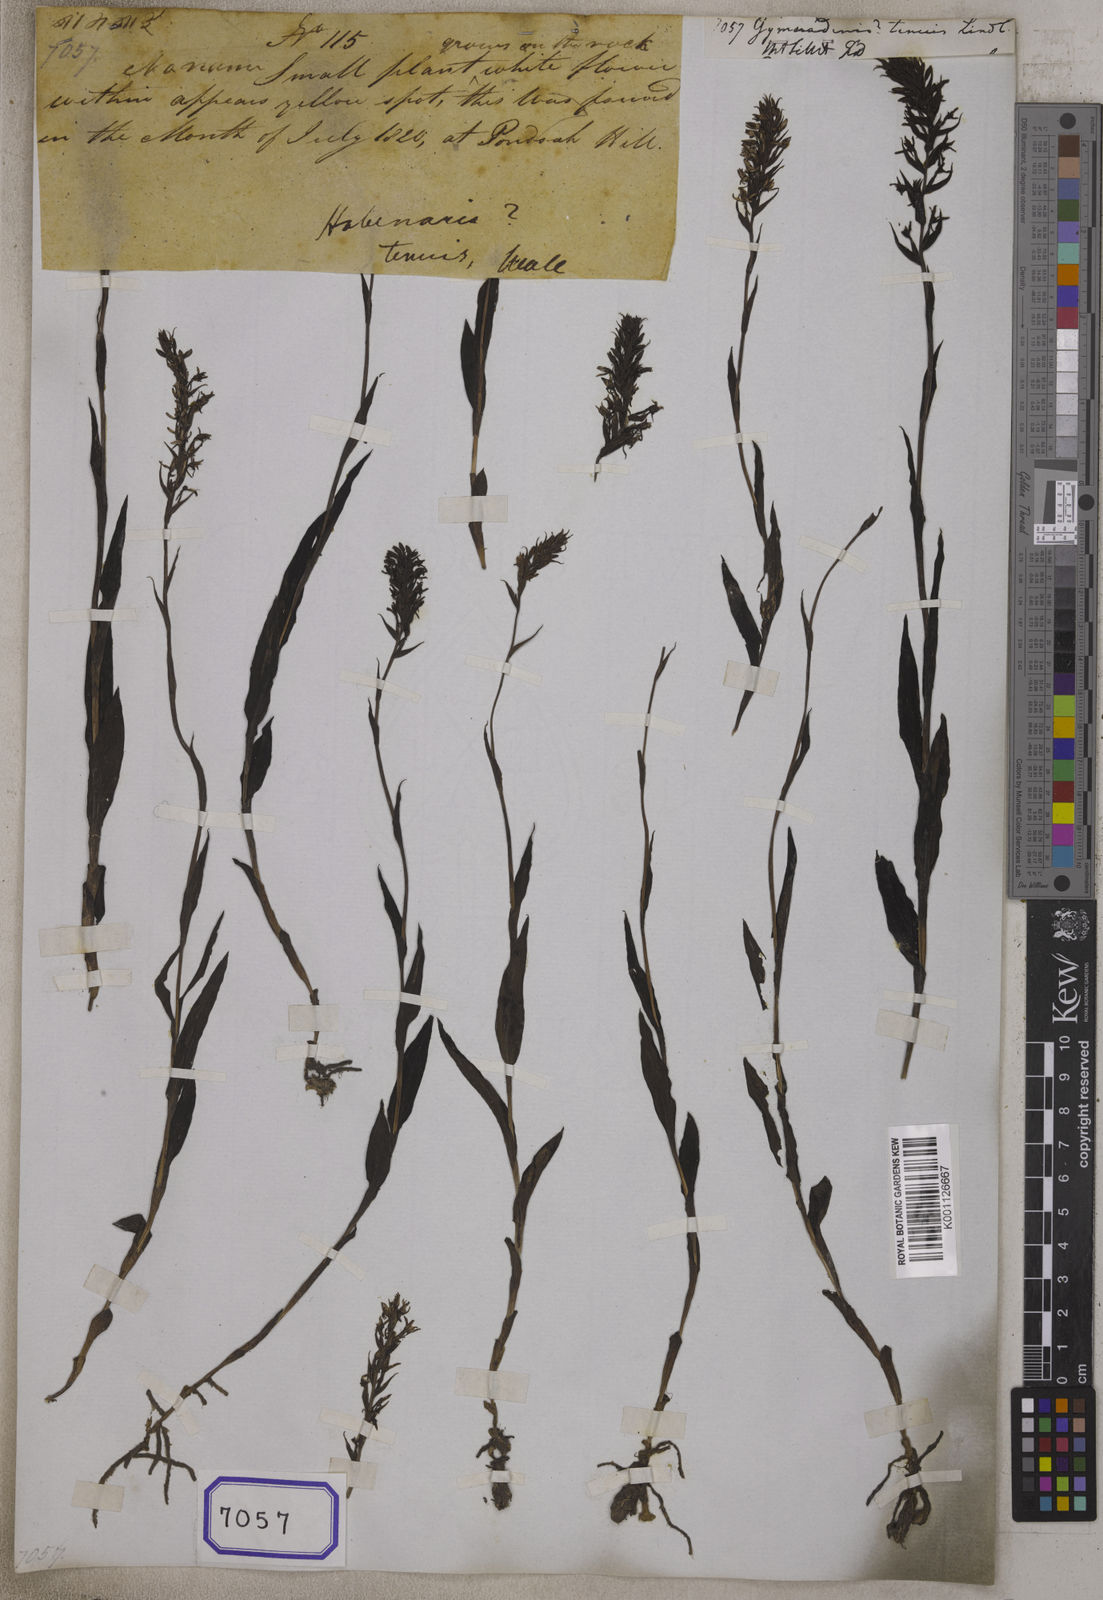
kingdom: Plantae
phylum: Tracheophyta
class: Liliopsida
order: Asparagales
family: Orchidaceae
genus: Gymnadenia
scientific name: Gymnadenia
